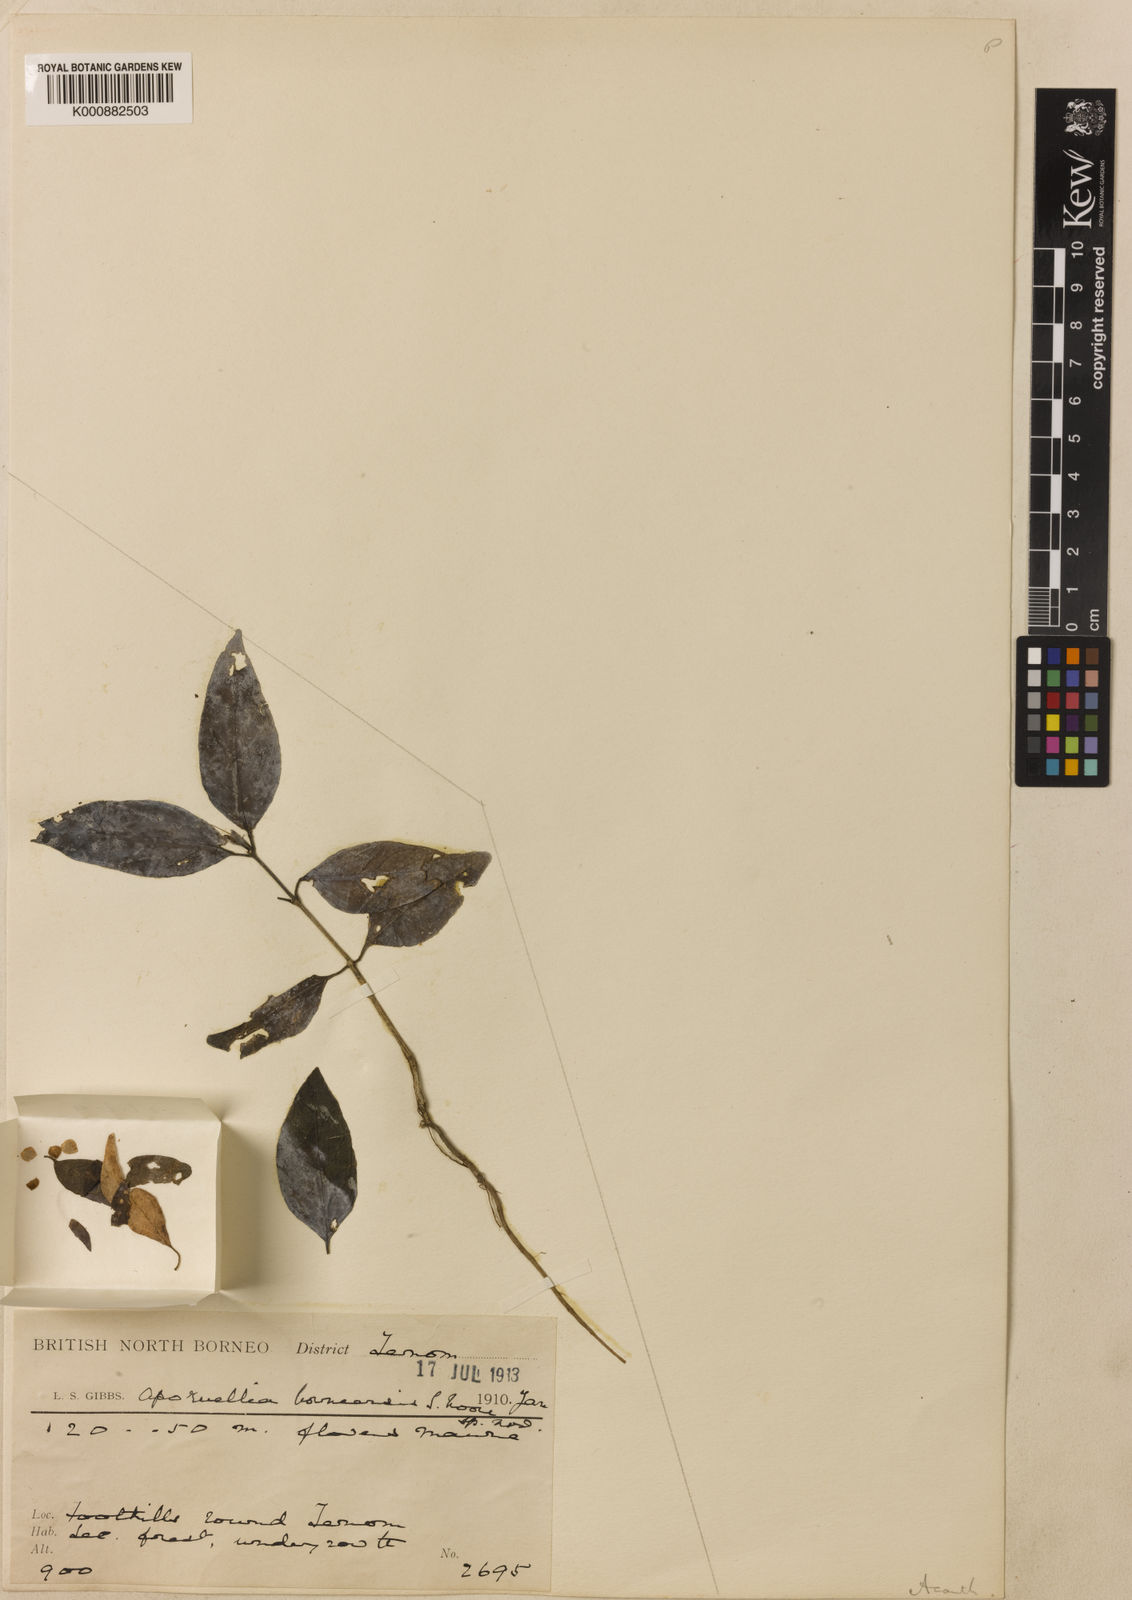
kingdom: Plantae
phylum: Tracheophyta
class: Magnoliopsida
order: Lamiales
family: Acanthaceae
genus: Ruellia
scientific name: Ruellia borneensis
